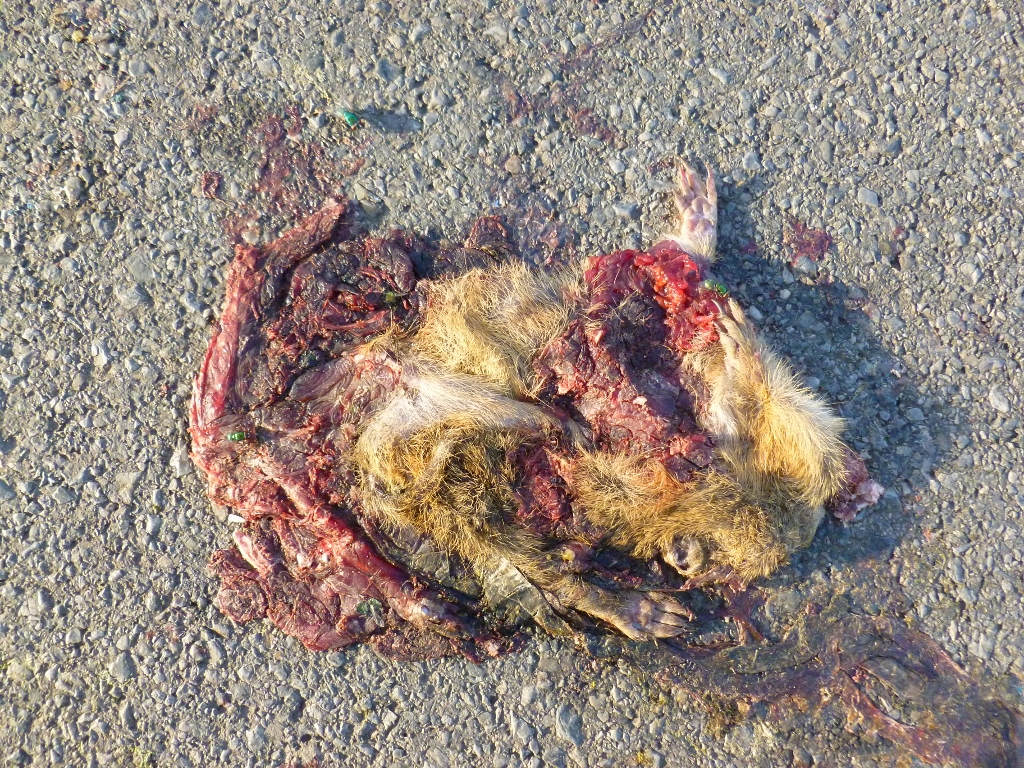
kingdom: Animalia
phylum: Chordata
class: Mammalia
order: Rodentia
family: Sciuridae
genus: Spermophilus
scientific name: Spermophilus citellus
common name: European ground squirrel
